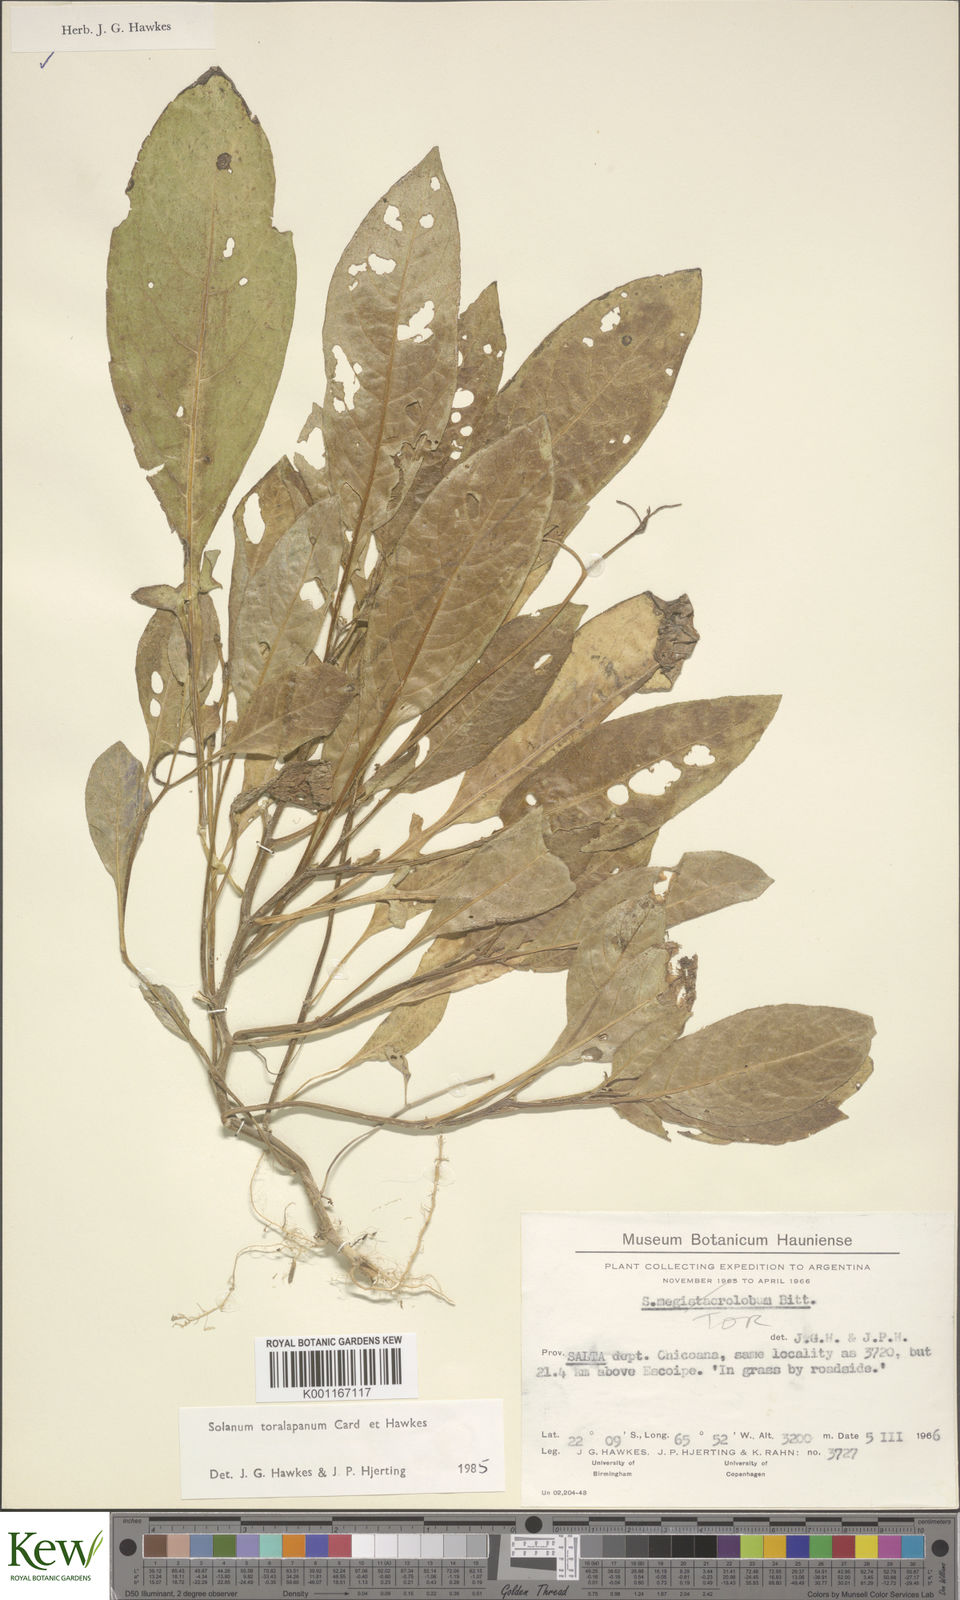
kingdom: Plantae
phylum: Tracheophyta
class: Magnoliopsida
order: Solanales
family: Solanaceae
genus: Solanum
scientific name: Solanum
